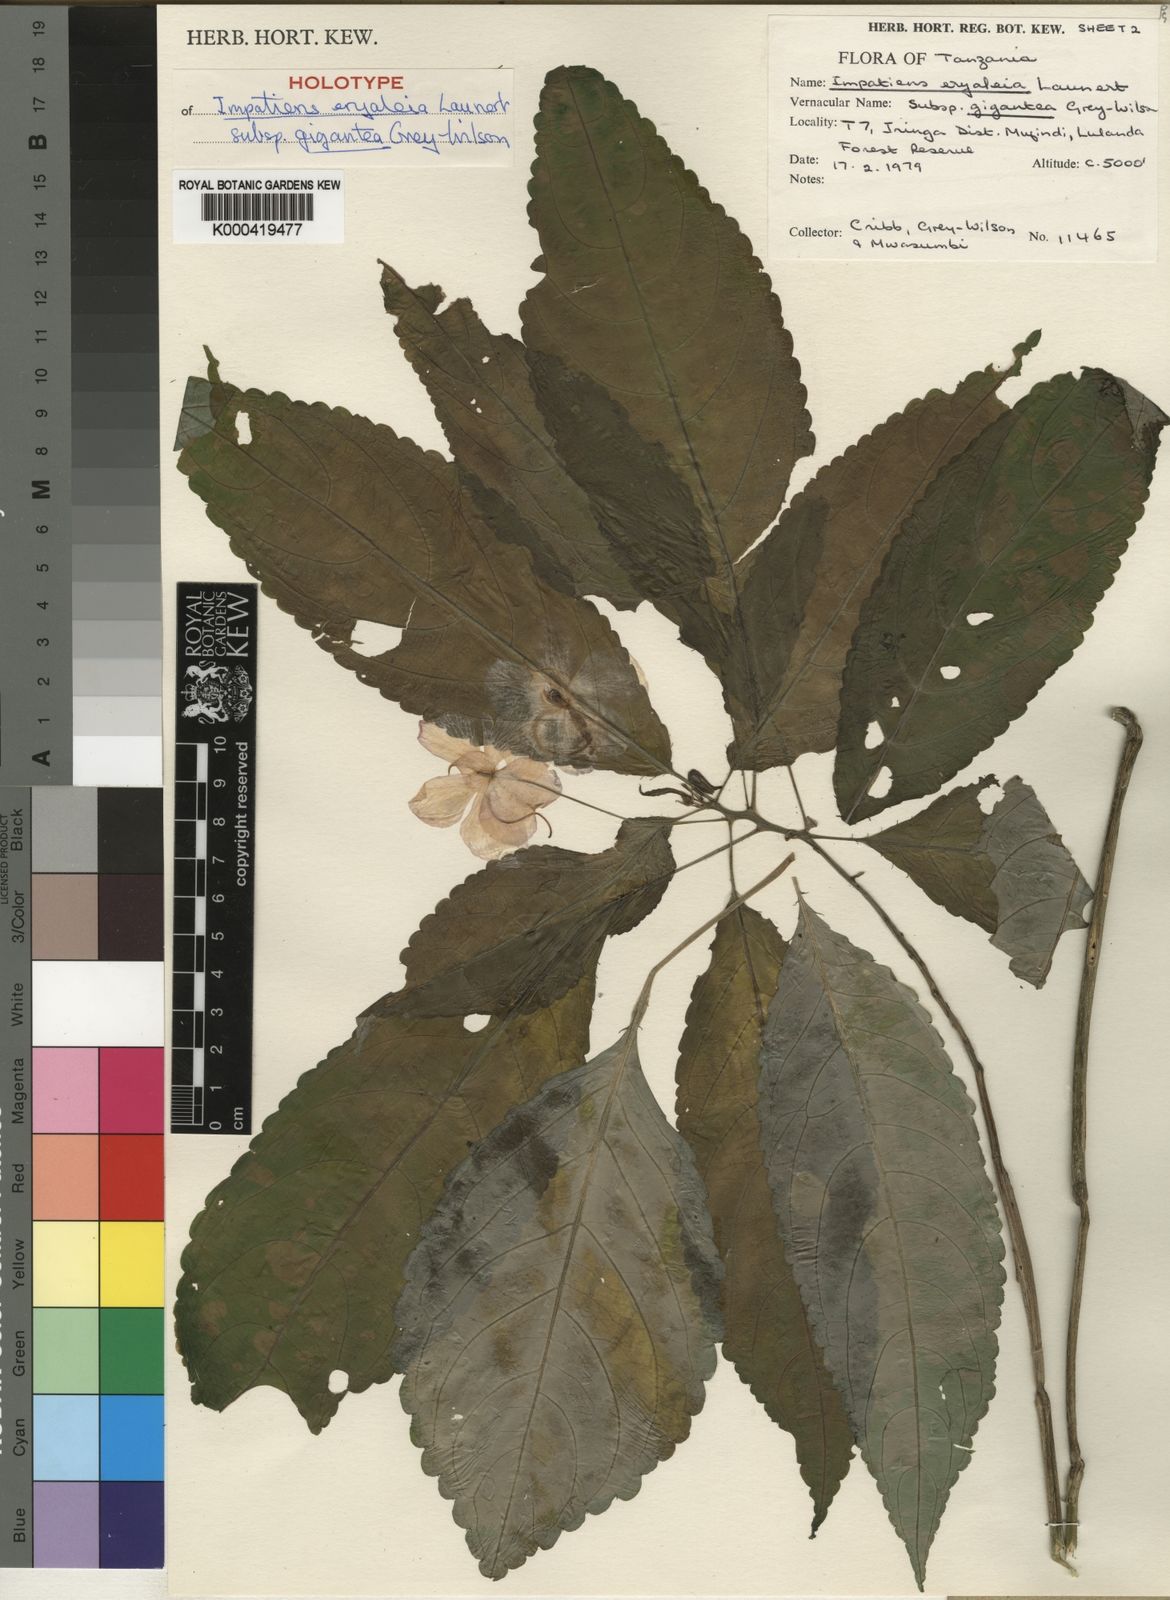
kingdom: Plantae
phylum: Tracheophyta
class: Magnoliopsida
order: Ericales
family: Balsaminaceae
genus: Impatiens
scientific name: Impatiens eryaleia
